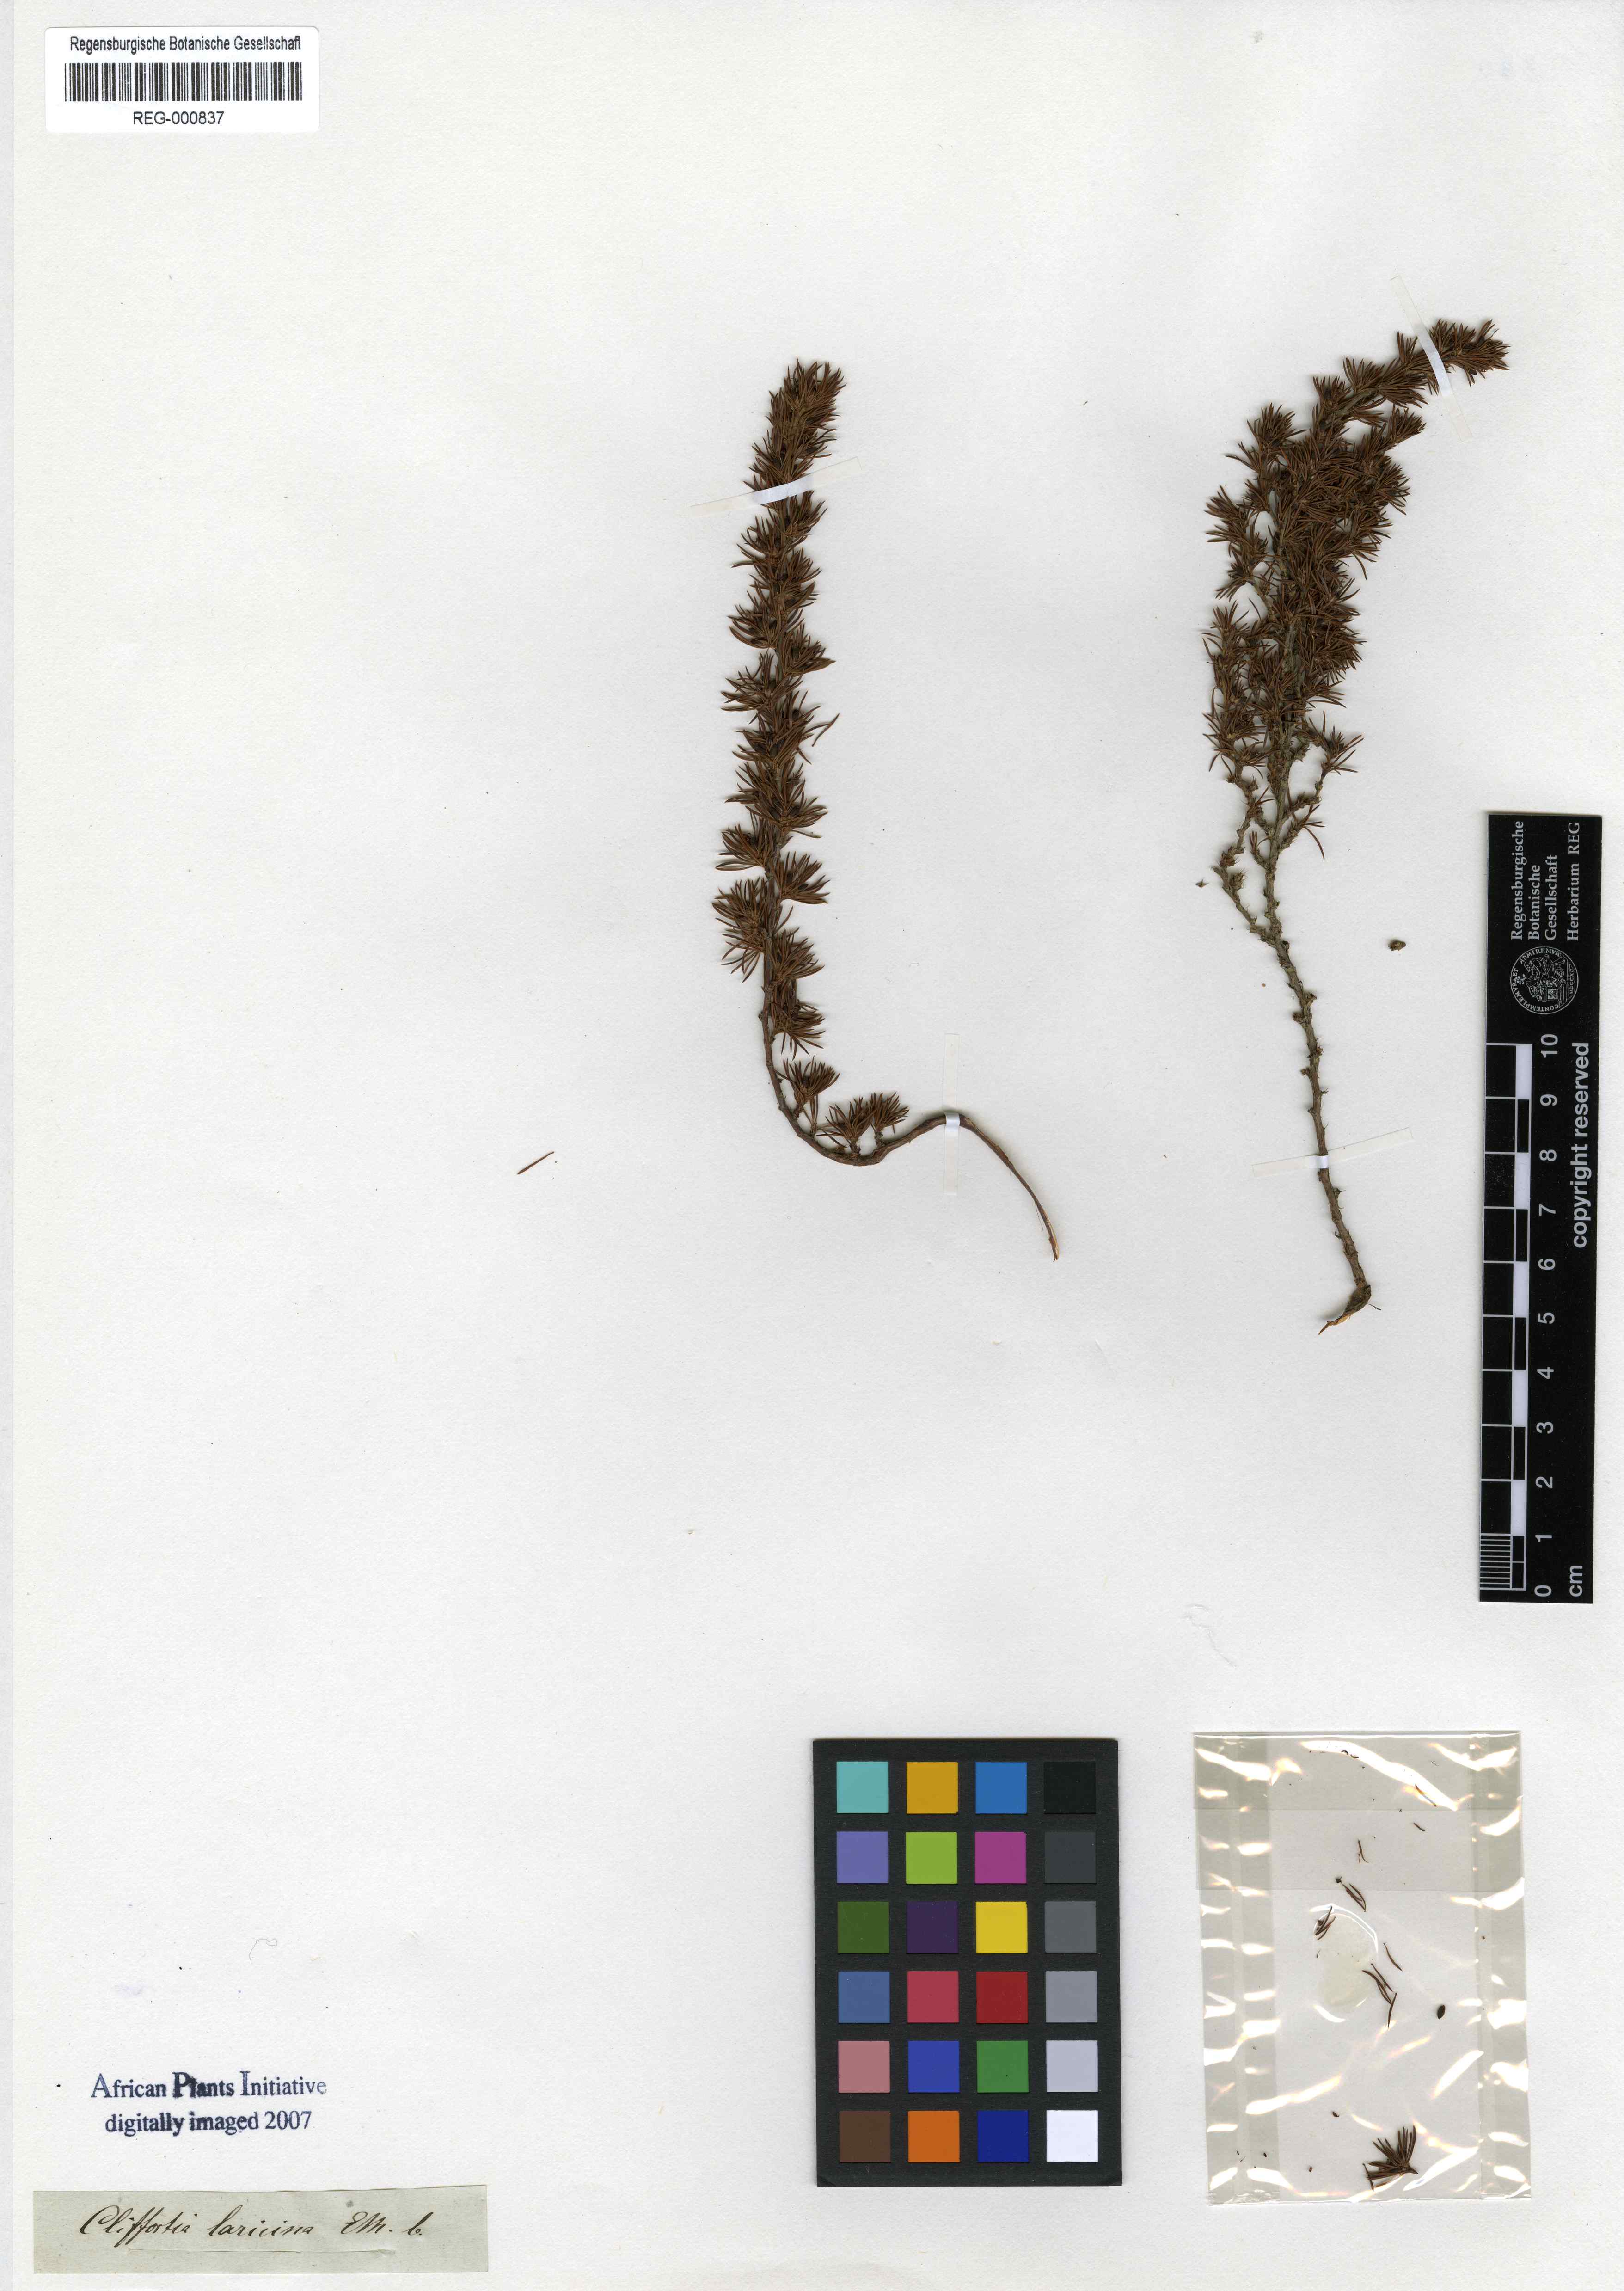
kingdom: Plantae
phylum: Tracheophyta
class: Magnoliopsida
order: Rosales
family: Rosaceae
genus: Cliffortia
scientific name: Cliffortia
